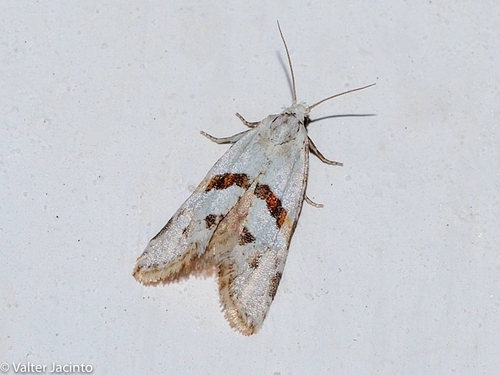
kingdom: Animalia
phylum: Arthropoda
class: Insecta
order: Lepidoptera
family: Tortricidae
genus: Aethes
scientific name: Aethes languidana
